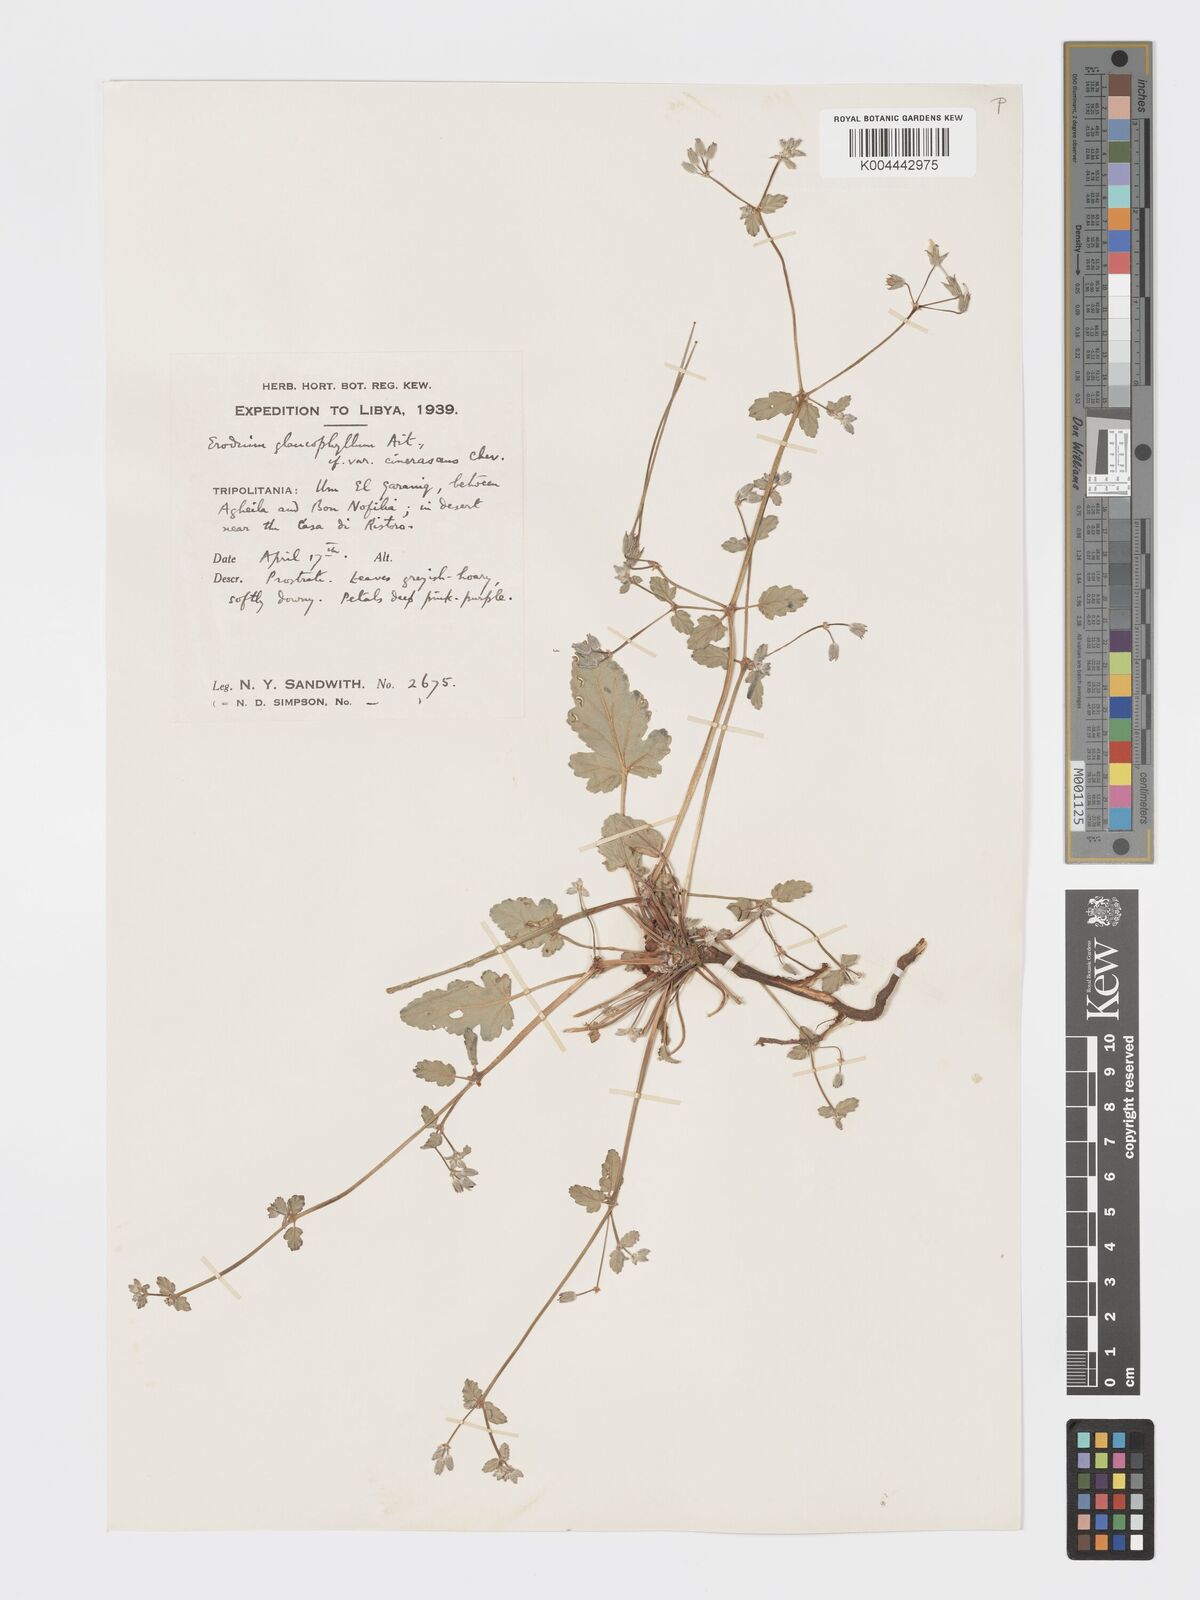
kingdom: Plantae
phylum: Tracheophyta
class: Magnoliopsida
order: Geraniales
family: Geraniaceae
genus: Erodium
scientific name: Erodium glaucophyllum
